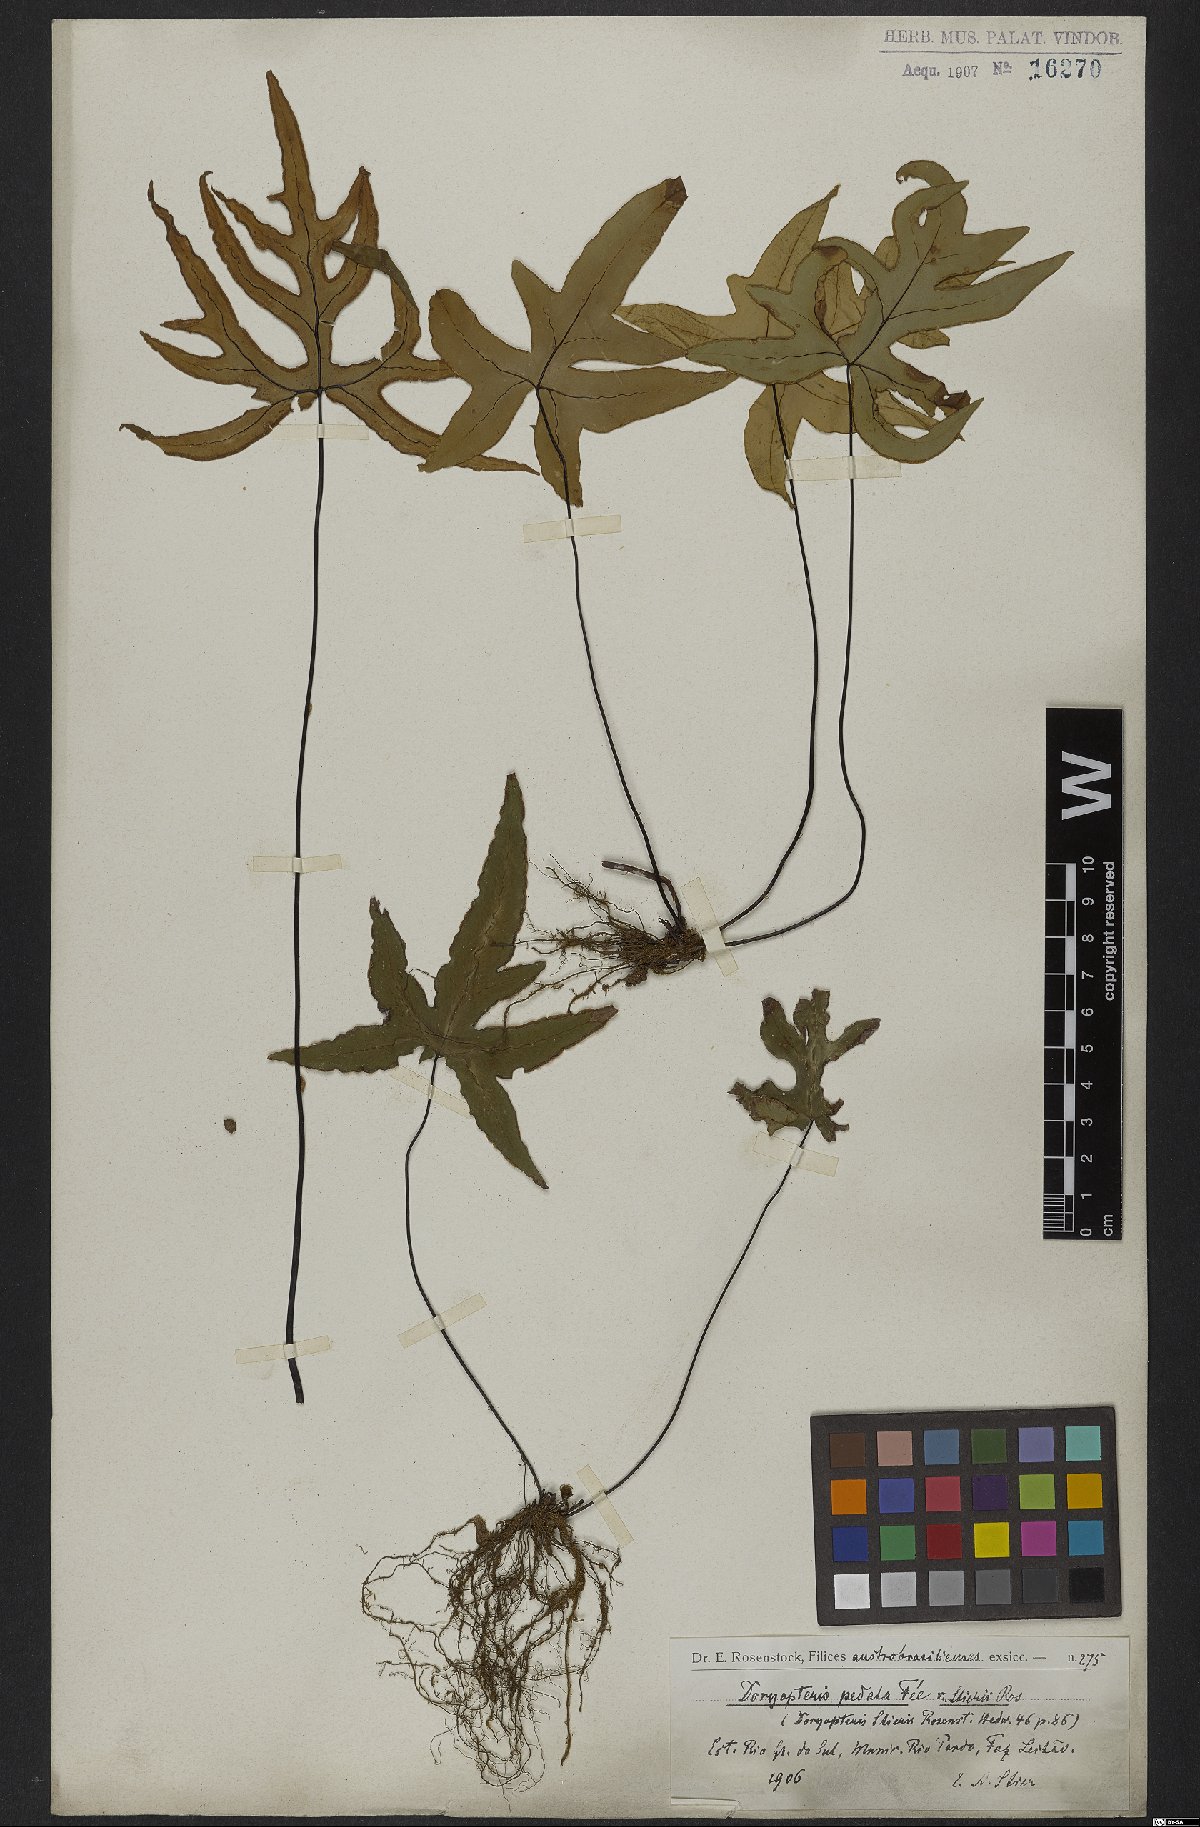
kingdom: Plantae
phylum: Tracheophyta
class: Polypodiopsida
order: Polypodiales
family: Pteridaceae
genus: Doryopteris
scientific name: Doryopteris pedata
